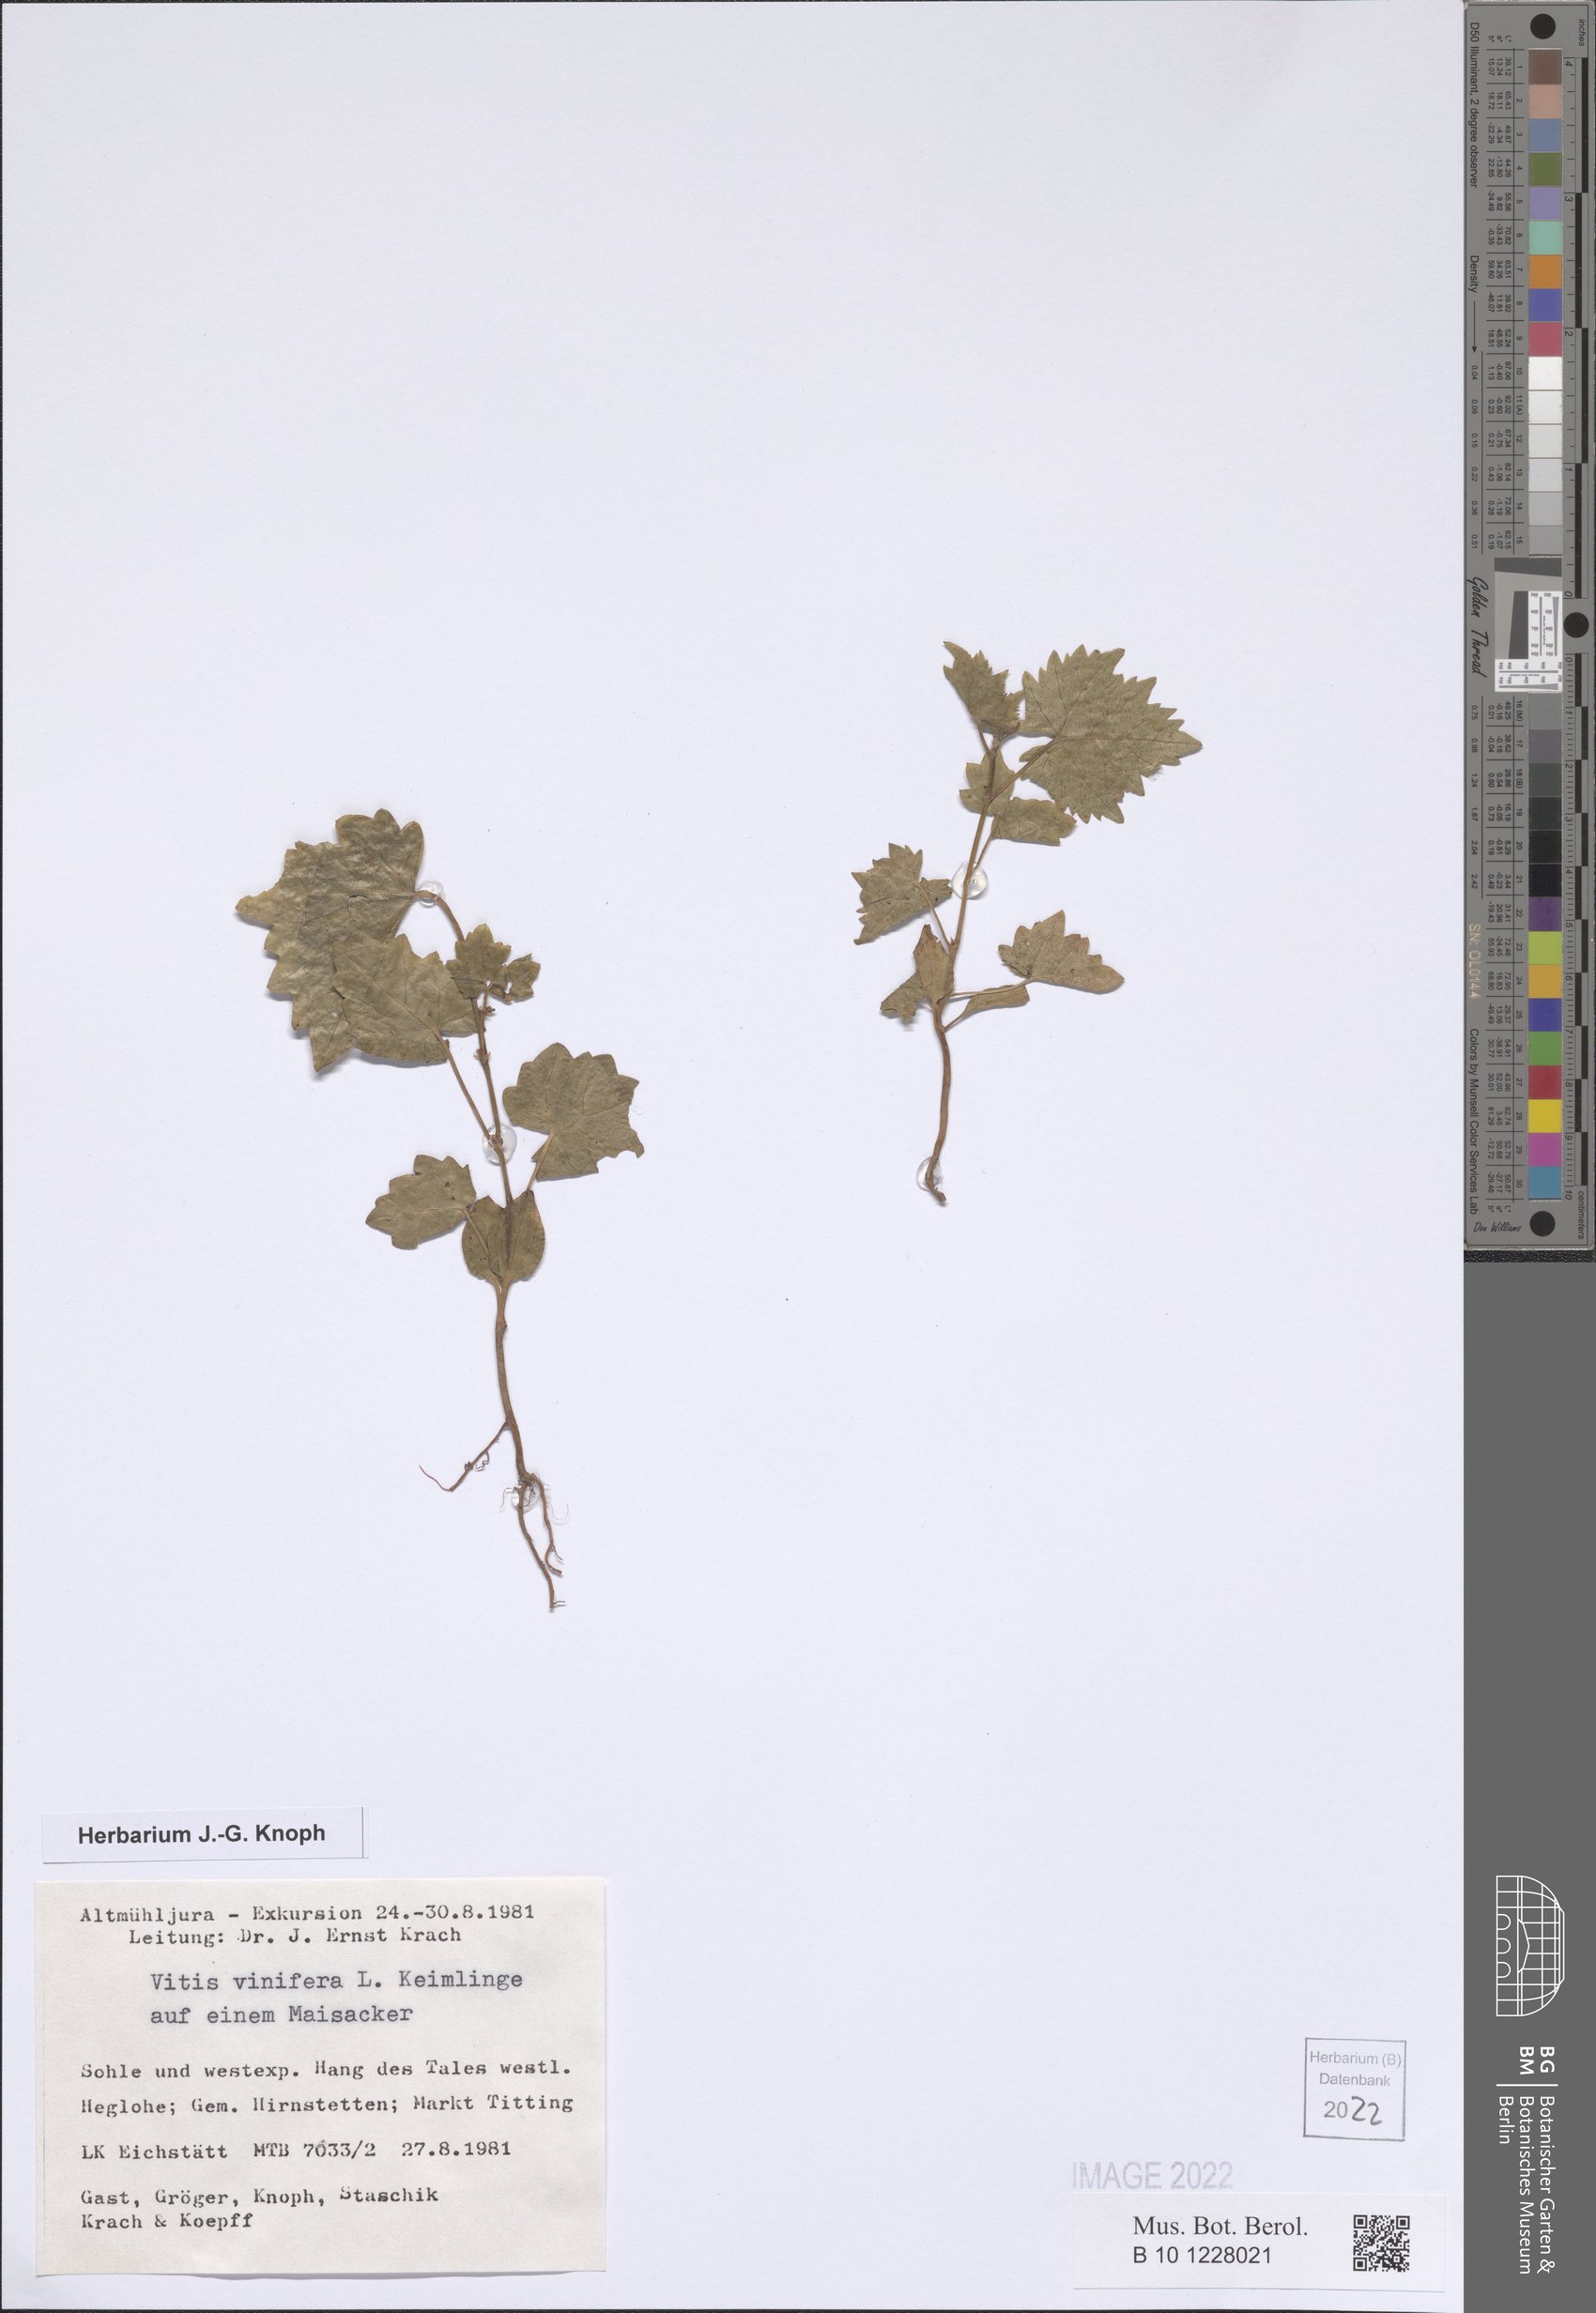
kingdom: Plantae
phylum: Tracheophyta
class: Magnoliopsida
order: Vitales
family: Vitaceae
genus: Vitis
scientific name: Vitis vinifera
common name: Grape-vine
